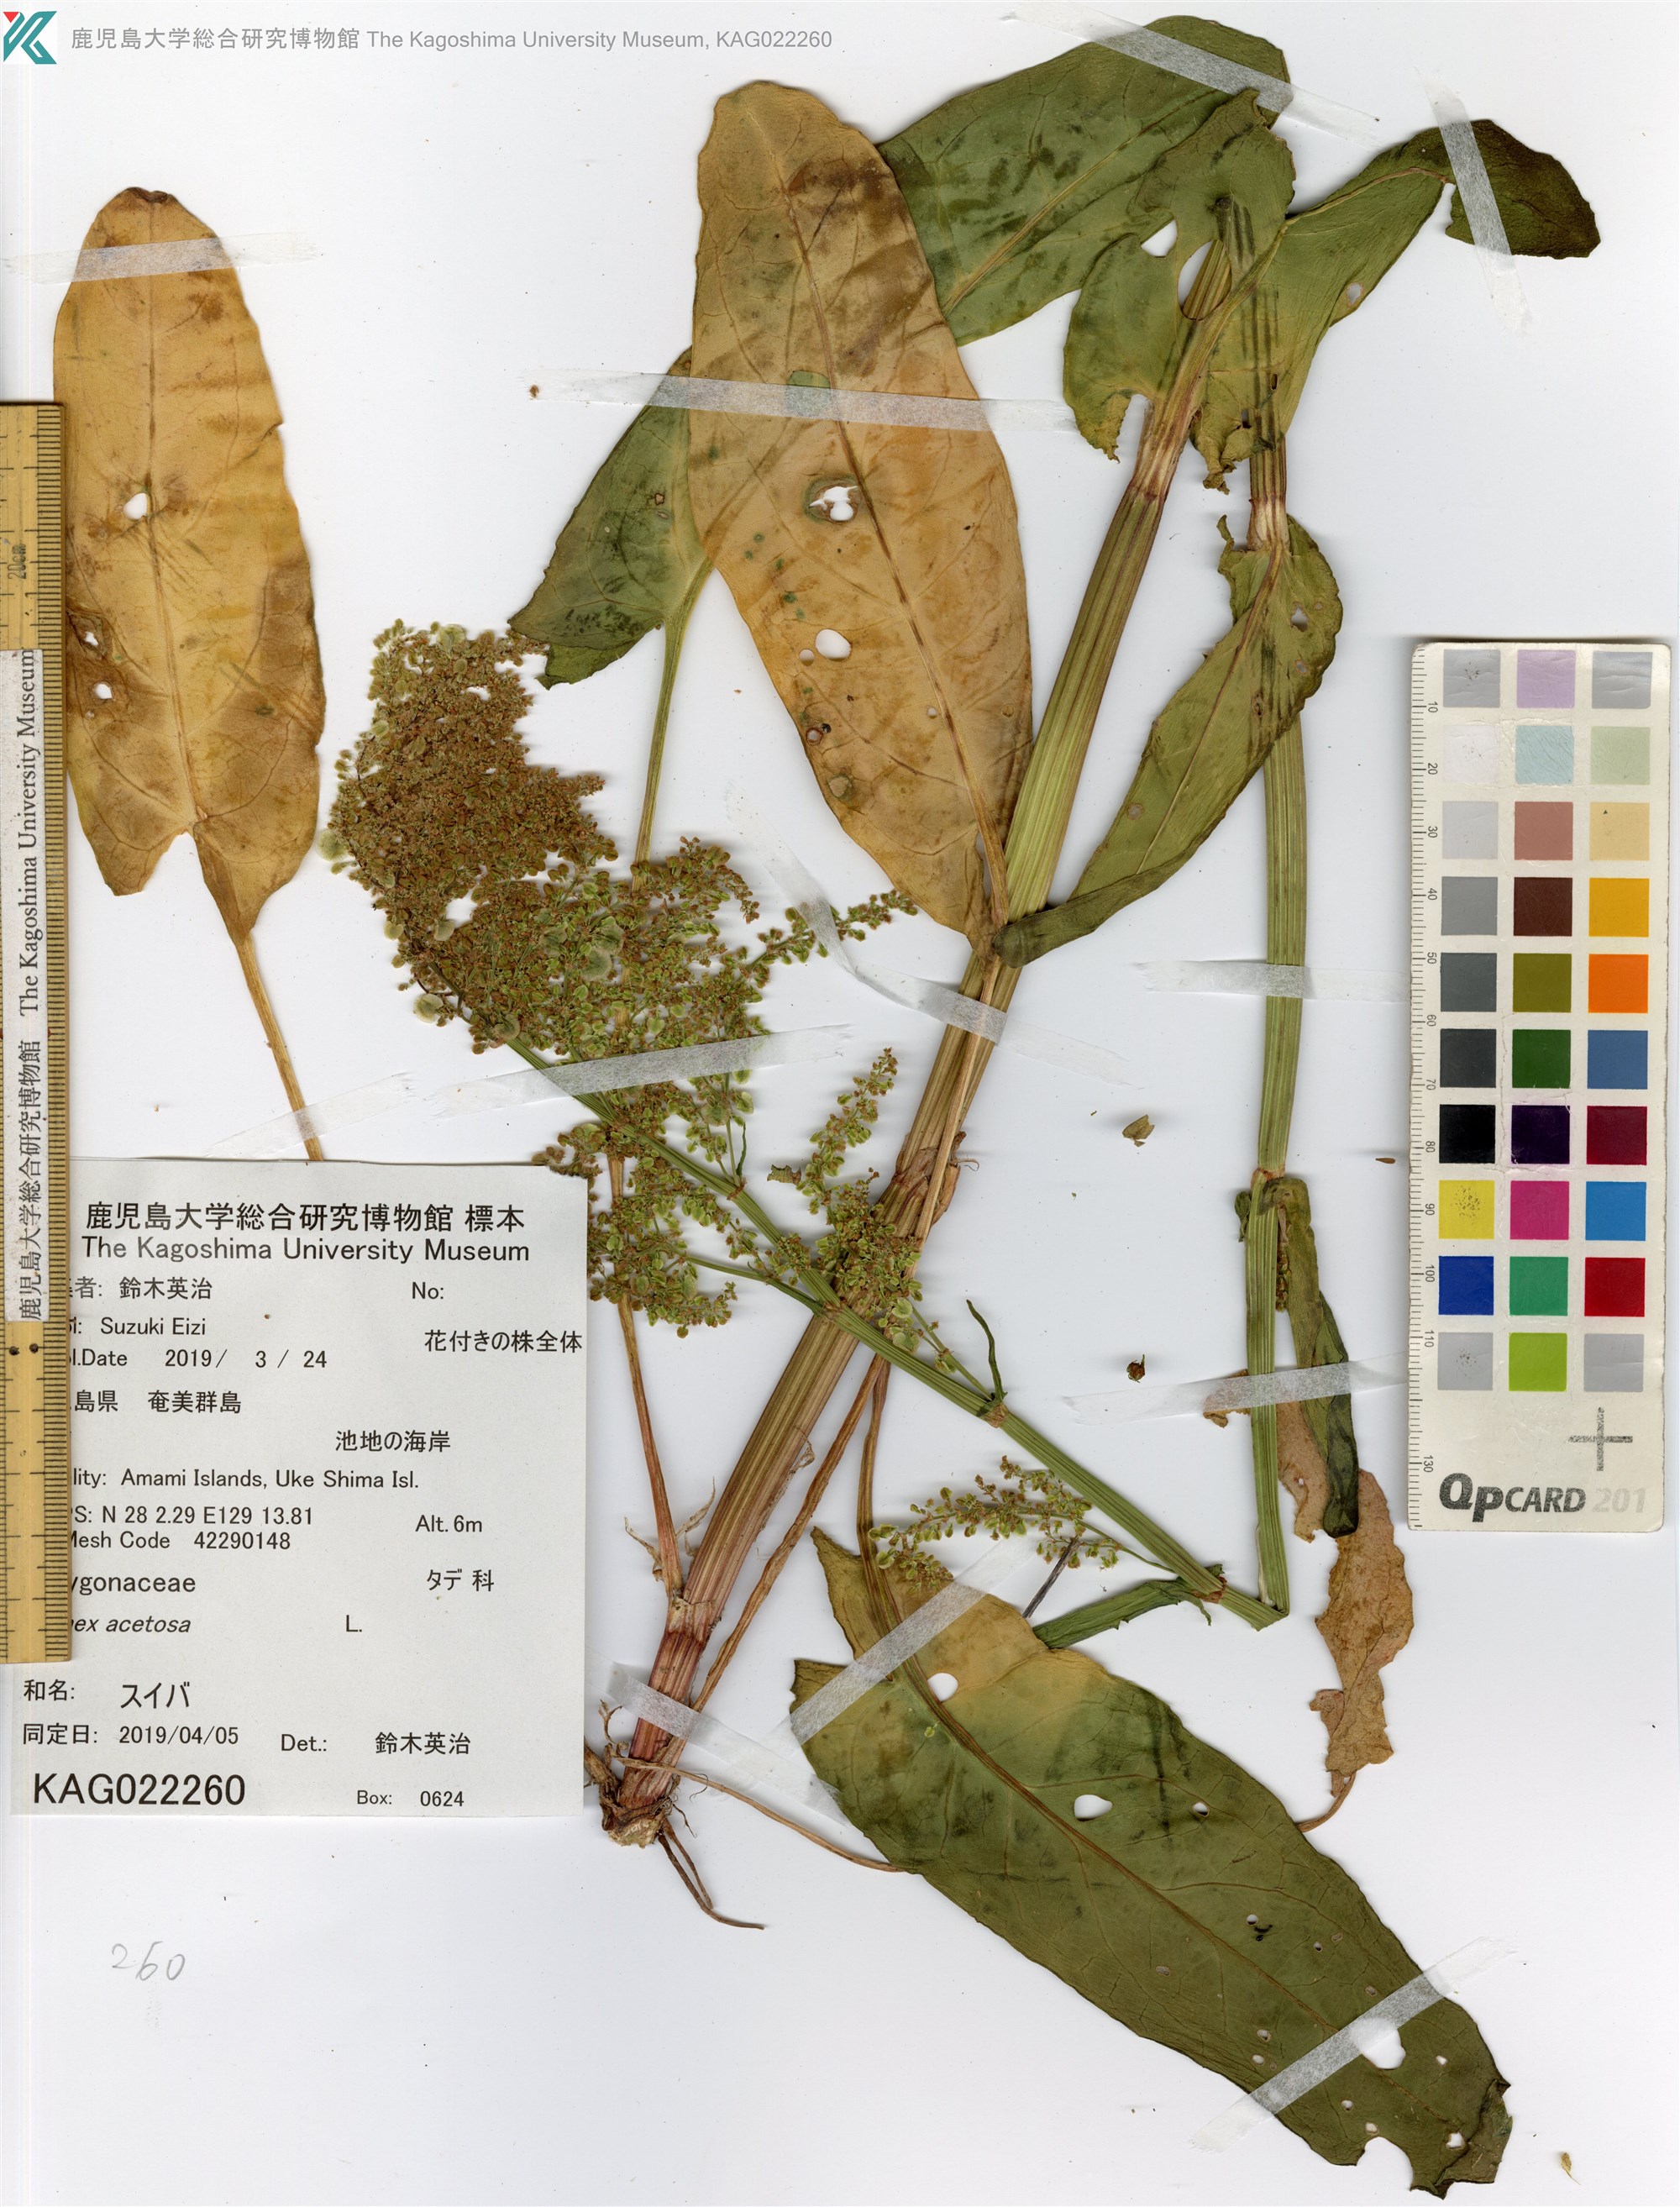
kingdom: Plantae
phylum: Tracheophyta
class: Magnoliopsida
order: Caryophyllales
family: Polygonaceae
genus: Rumex
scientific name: Rumex acetosa
